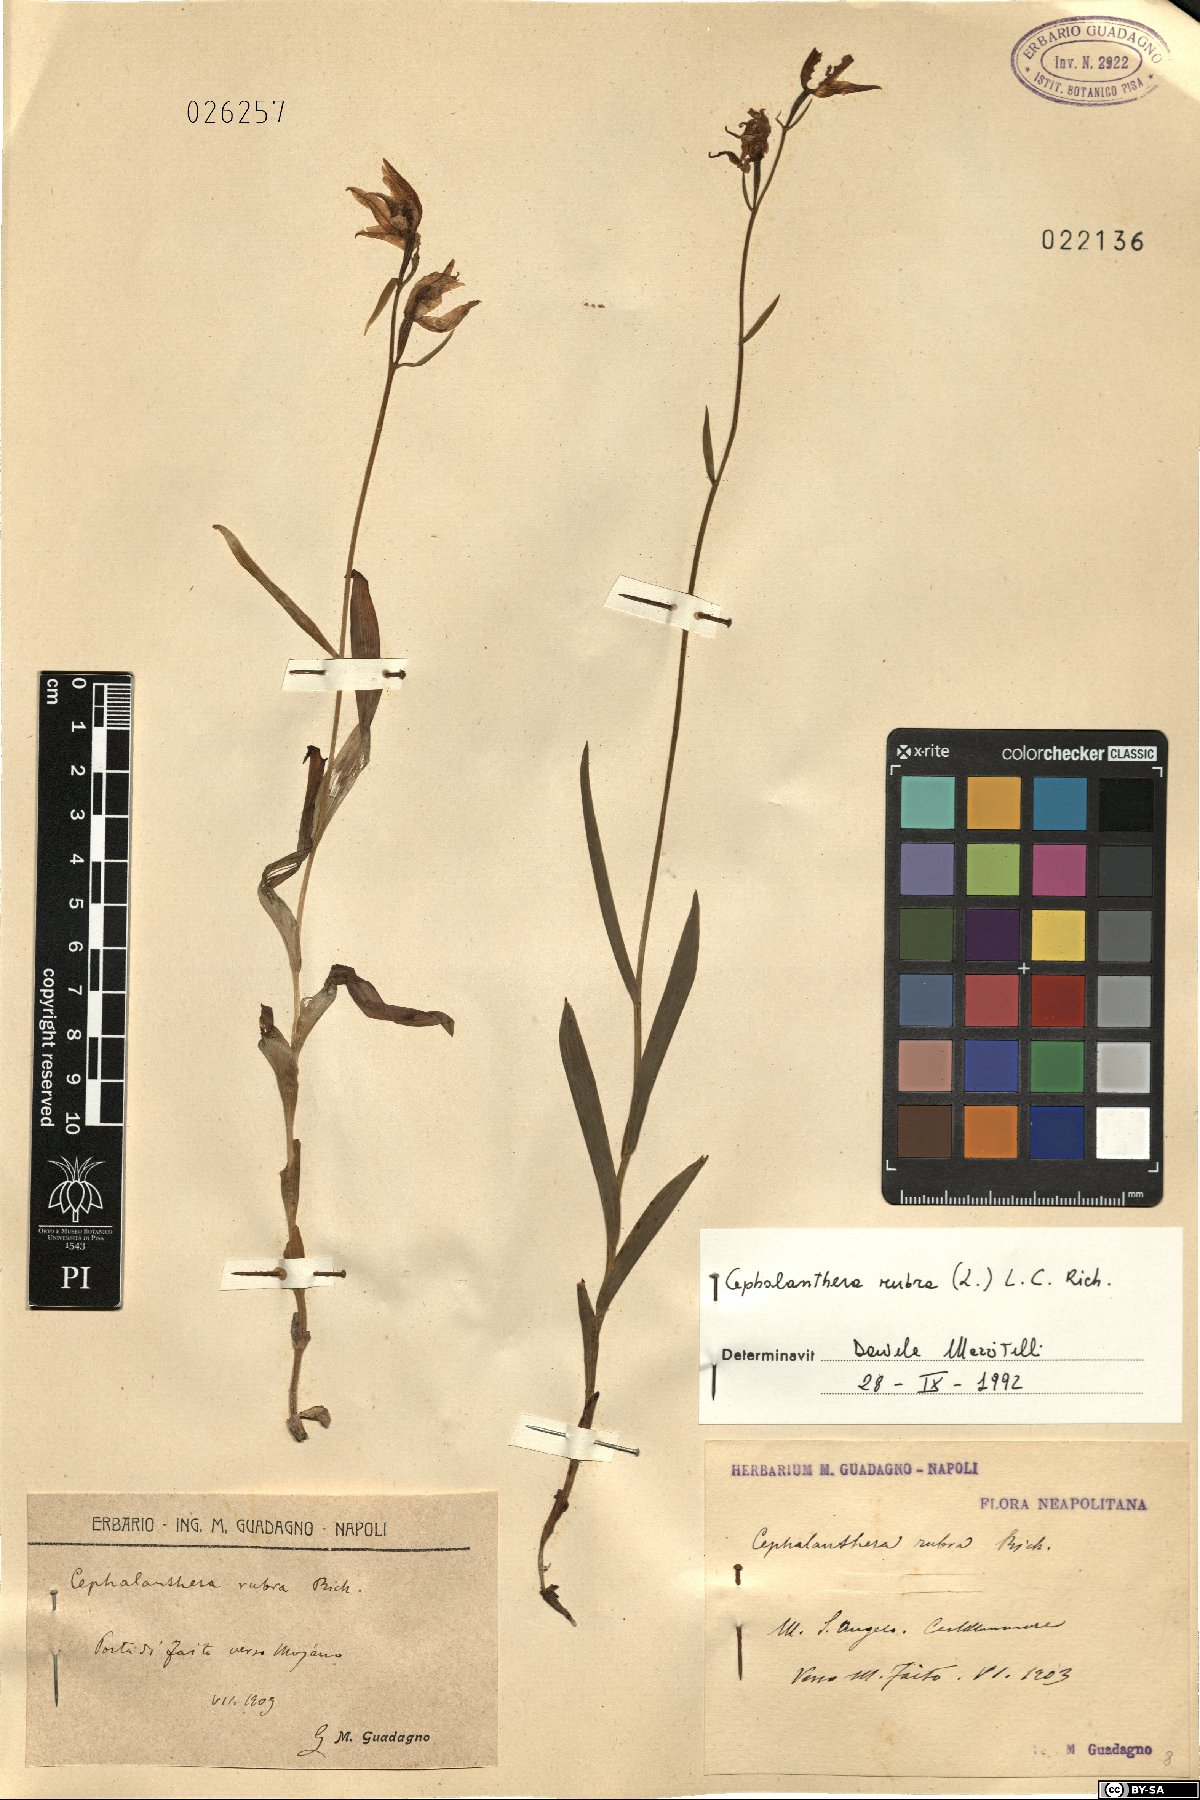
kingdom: Plantae
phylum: Tracheophyta
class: Liliopsida
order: Asparagales
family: Orchidaceae
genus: Cephalanthera
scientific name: Cephalanthera rubra
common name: Red helleborine
